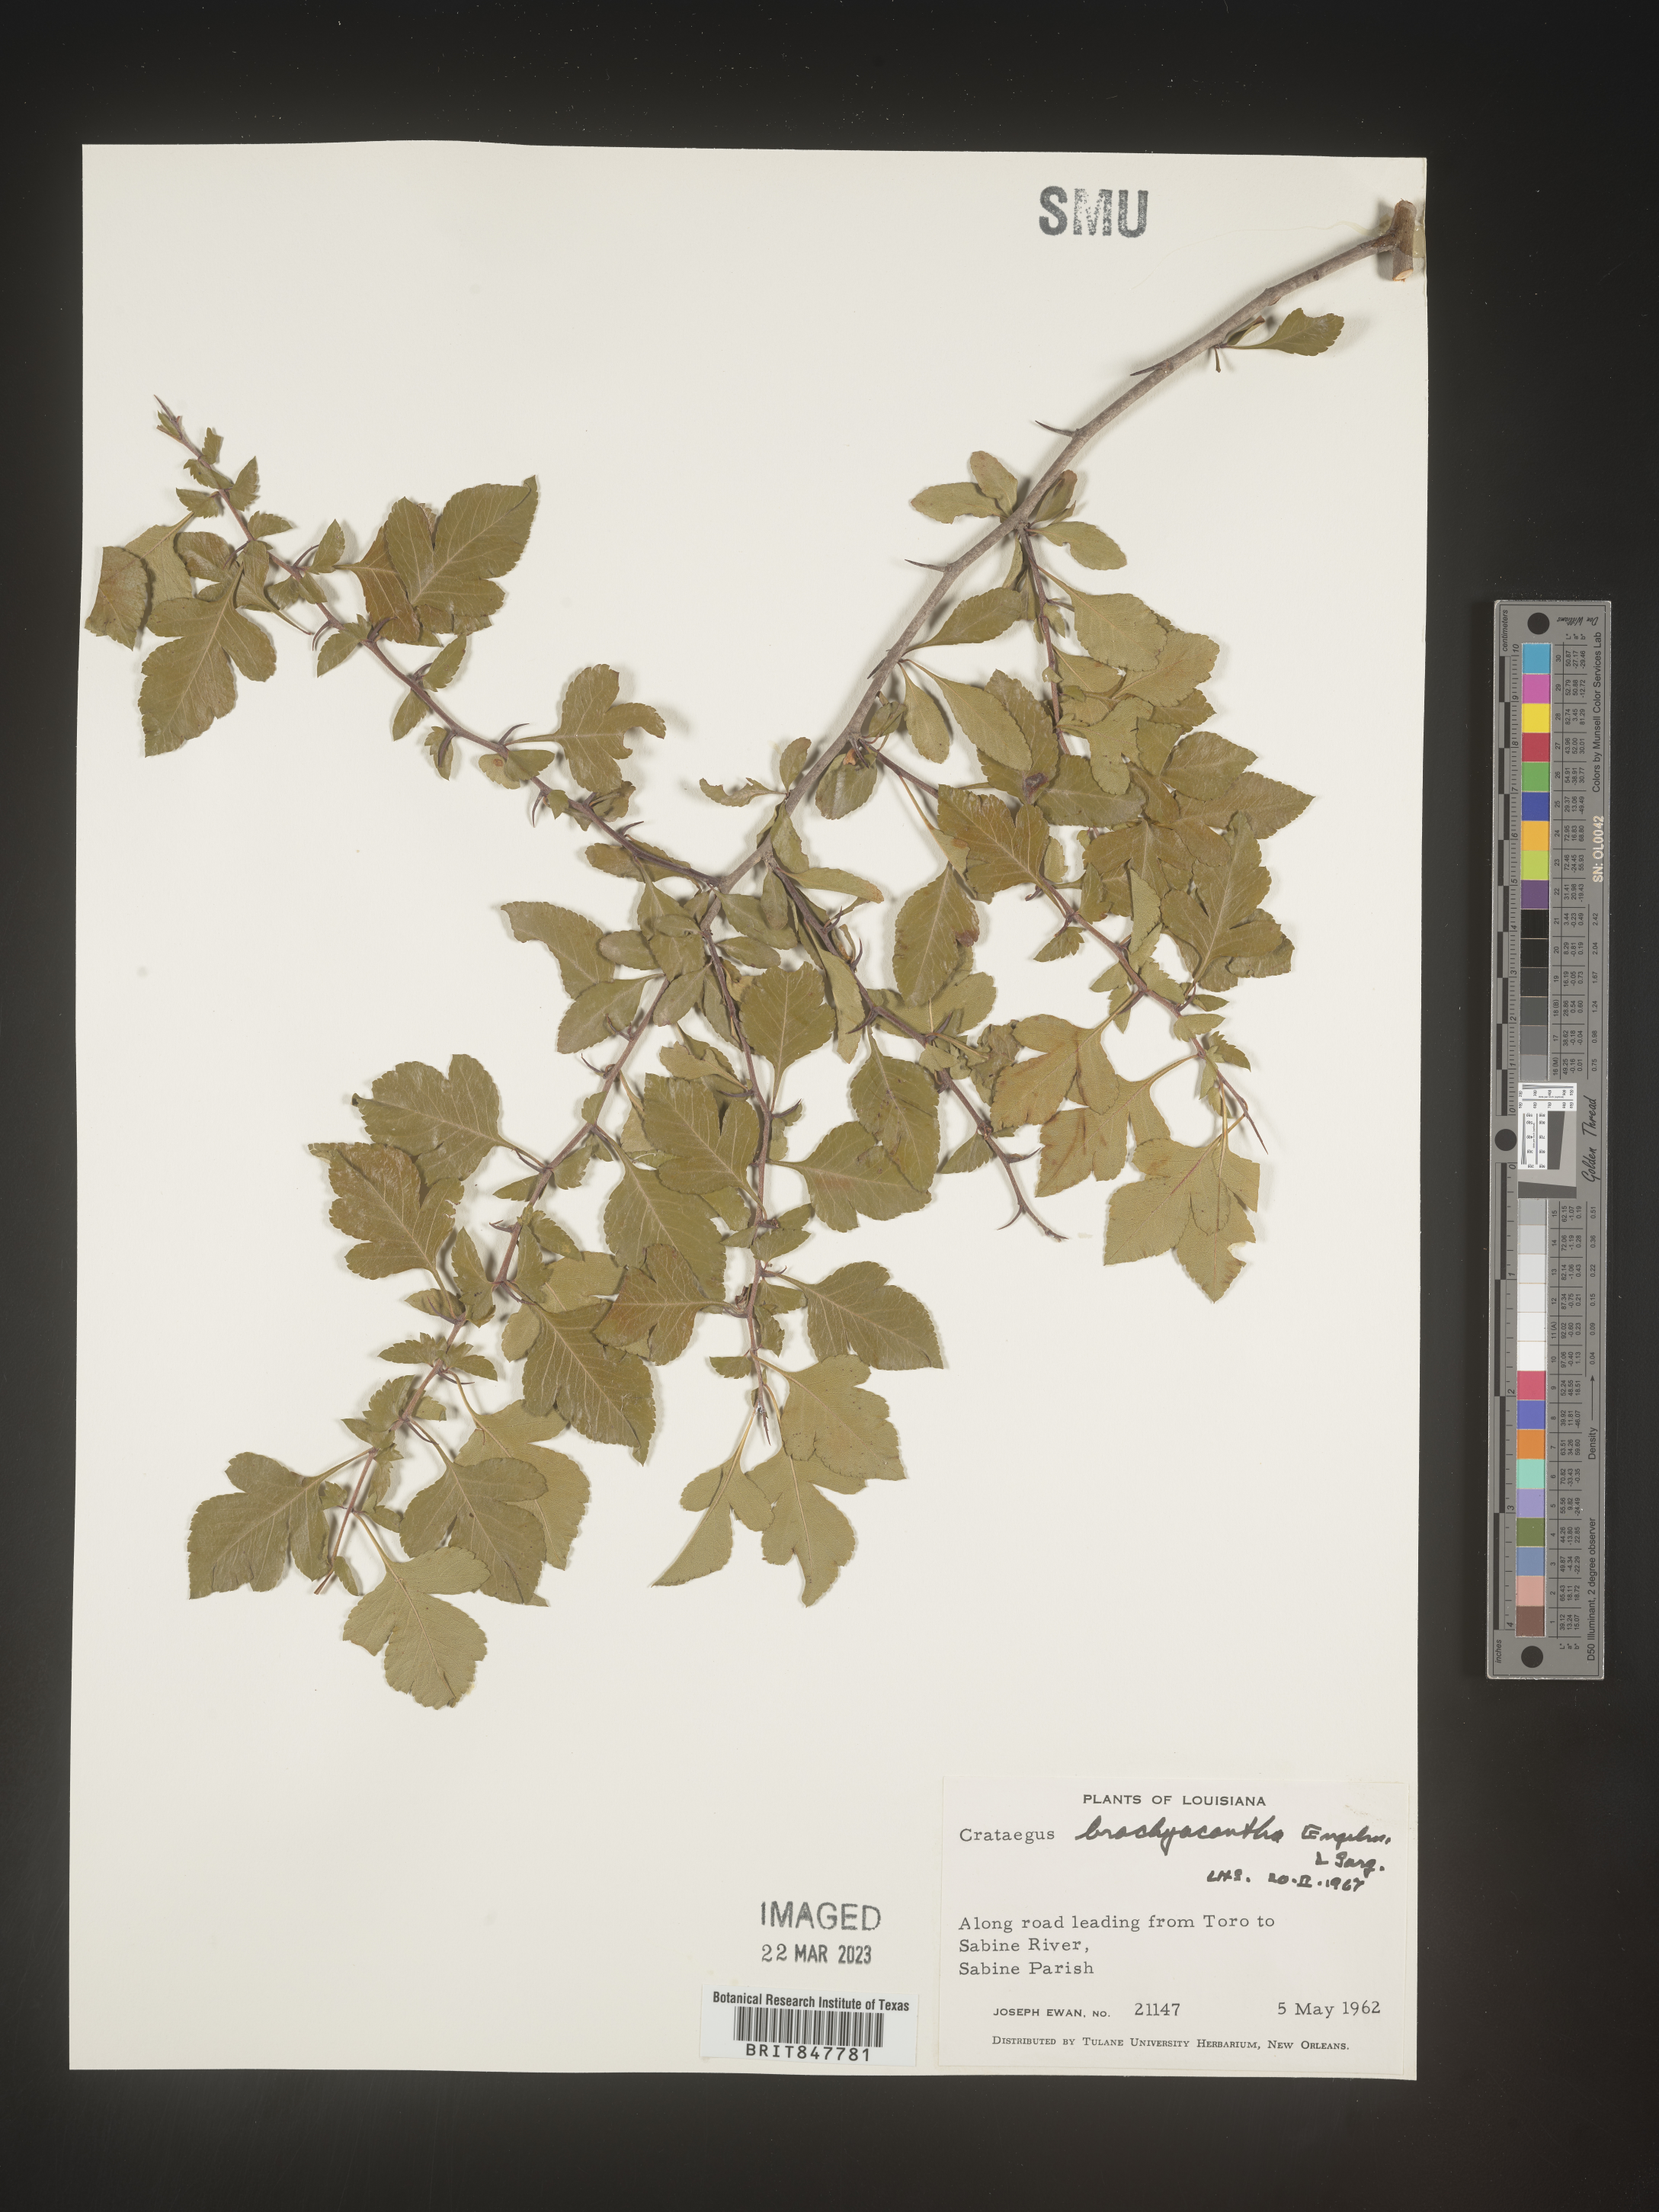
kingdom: Plantae
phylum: Tracheophyta
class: Magnoliopsida
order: Rosales
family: Rosaceae
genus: Crataegus
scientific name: Crataegus brachyacantha
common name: Blueberry-hawthorn
